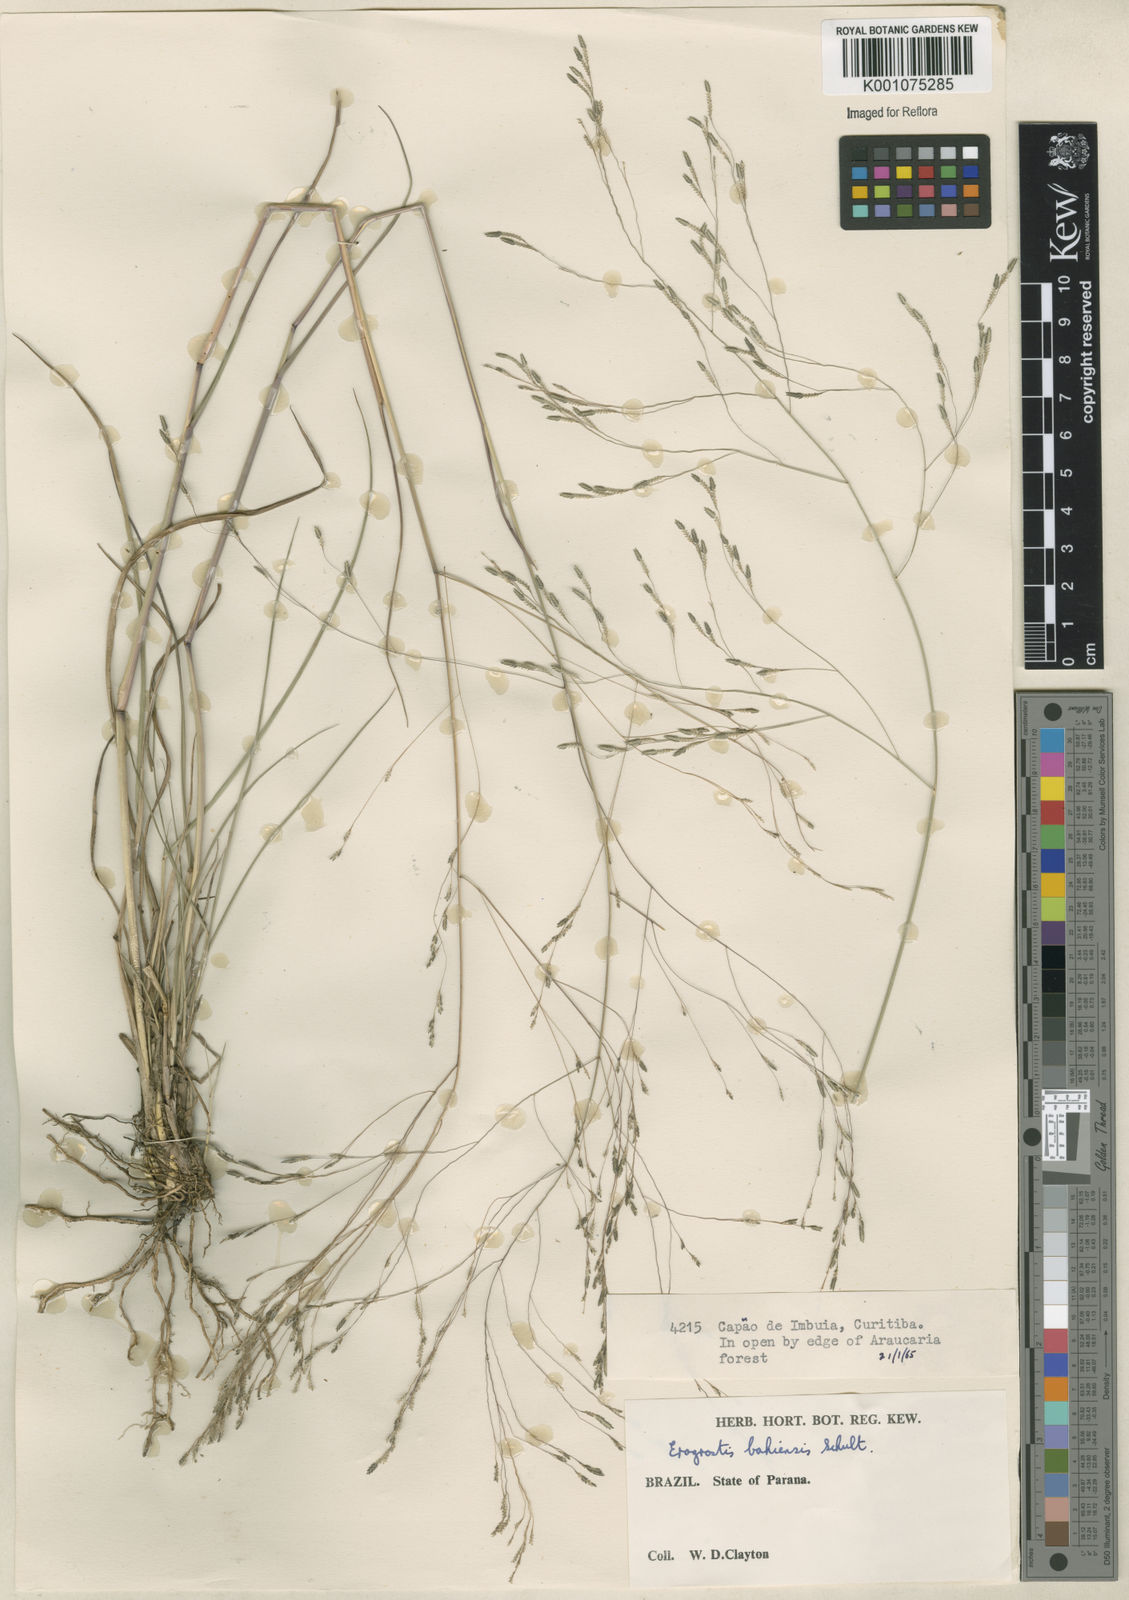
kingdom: Plantae
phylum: Tracheophyta
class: Liliopsida
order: Poales
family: Poaceae
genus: Eragrostis
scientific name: Eragrostis bahiensis
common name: Bahia lovegrass
